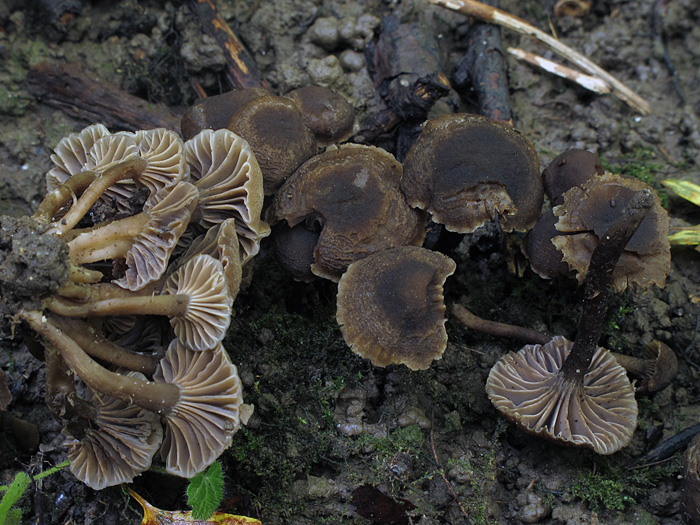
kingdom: Fungi
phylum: Basidiomycota
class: Agaricomycetes
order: Agaricales
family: Clavariaceae
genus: Hodophilus
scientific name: Hodophilus
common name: kratvokshat
